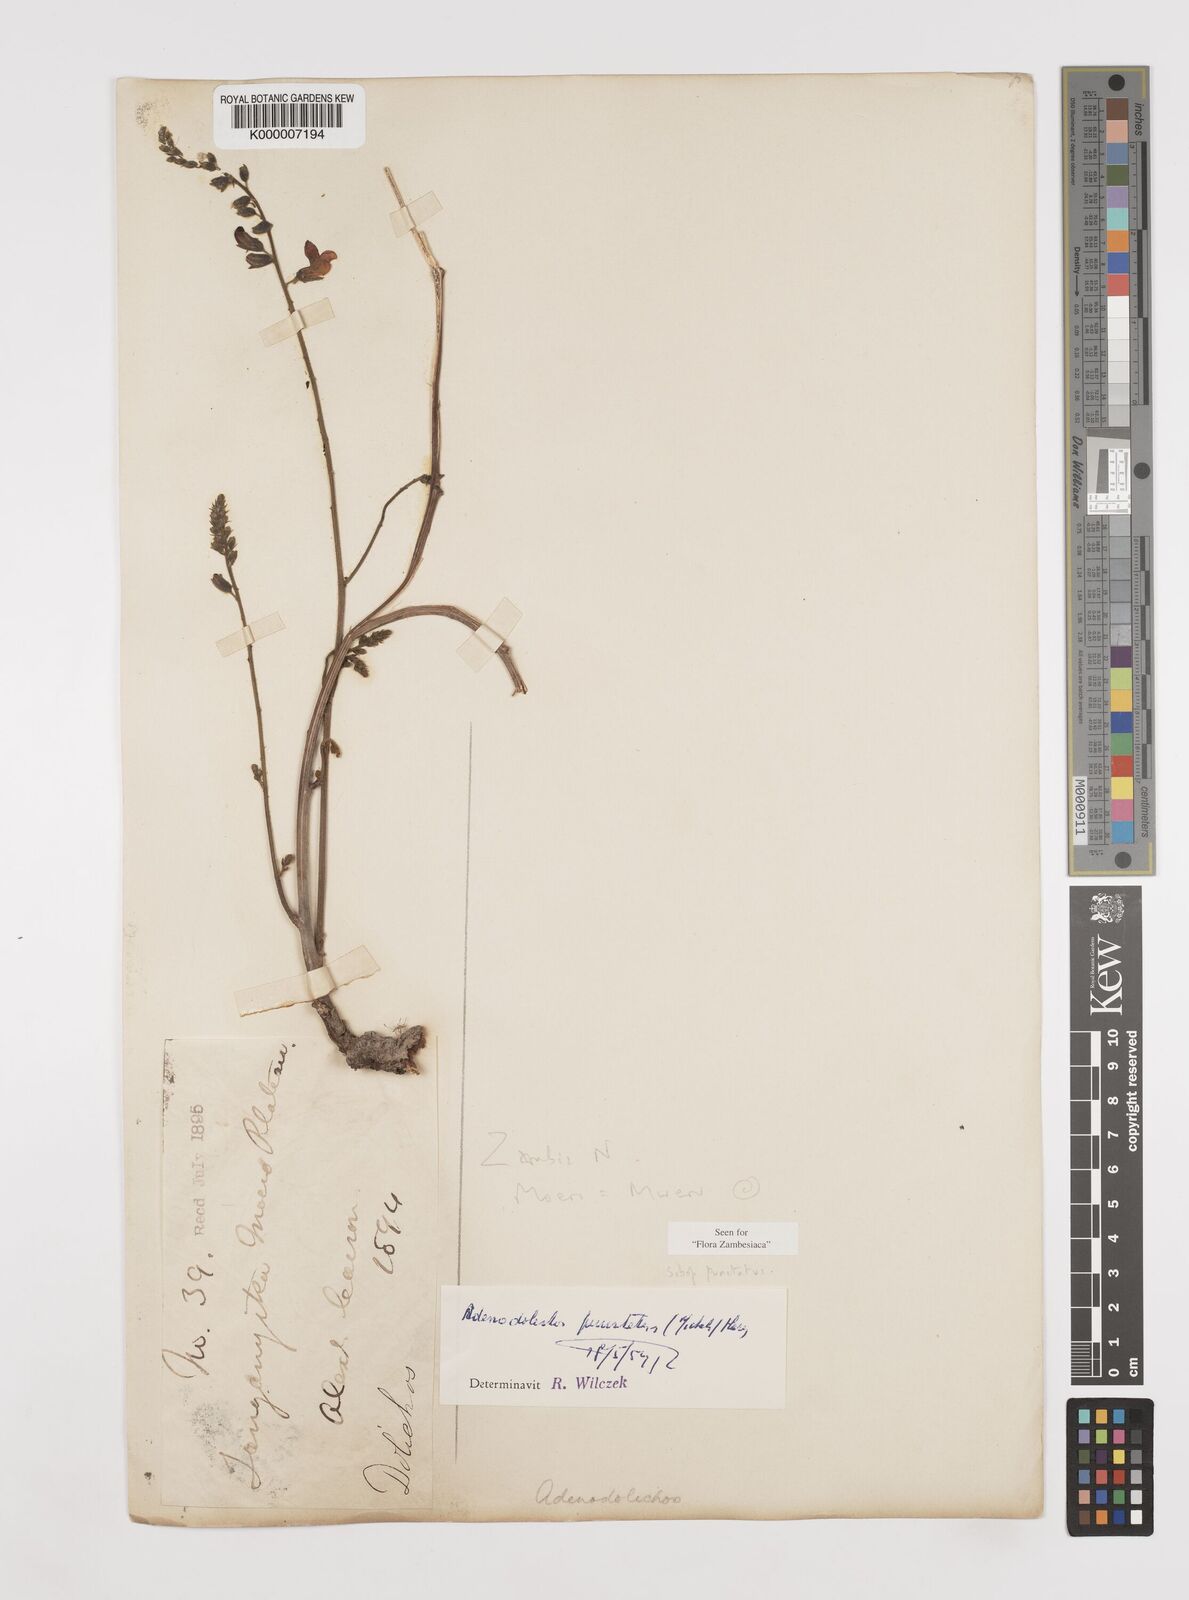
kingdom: Plantae
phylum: Tracheophyta
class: Magnoliopsida
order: Fabales
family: Fabaceae
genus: Adenodolichos
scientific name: Adenodolichos punctatus
